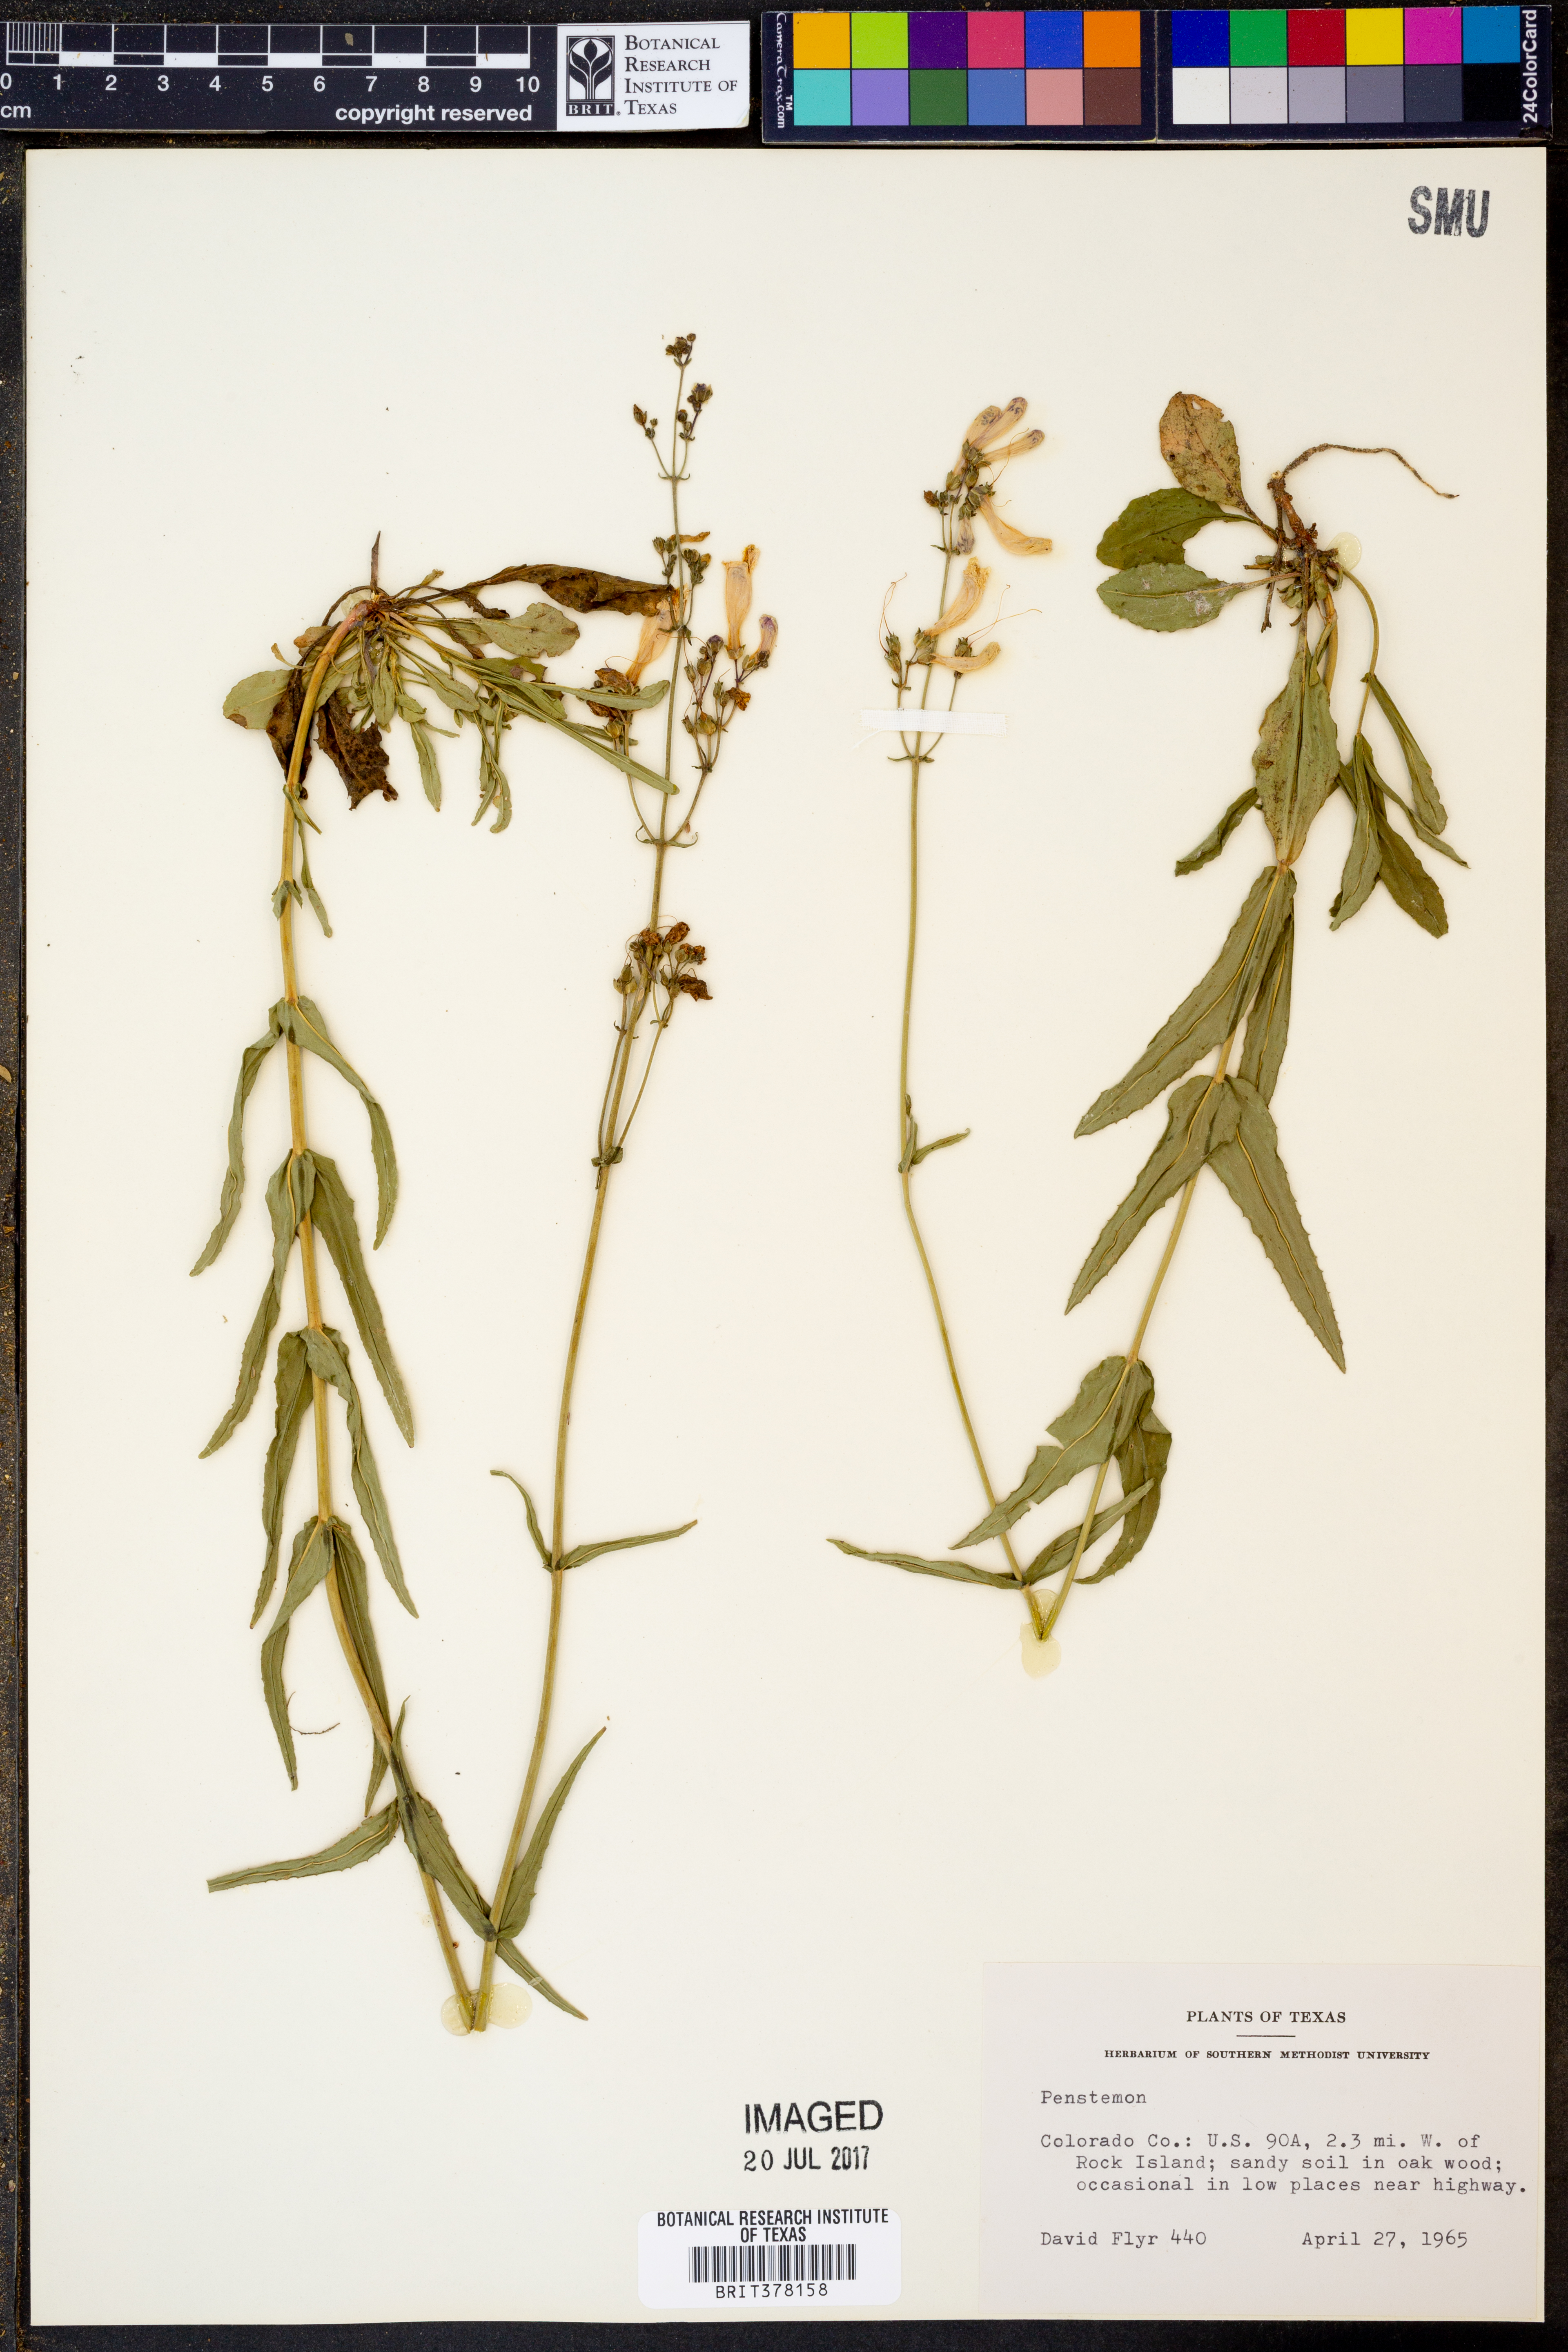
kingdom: Plantae
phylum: Tracheophyta
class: Magnoliopsida
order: Lamiales
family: Plantaginaceae
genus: Penstemon
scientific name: Penstemon
